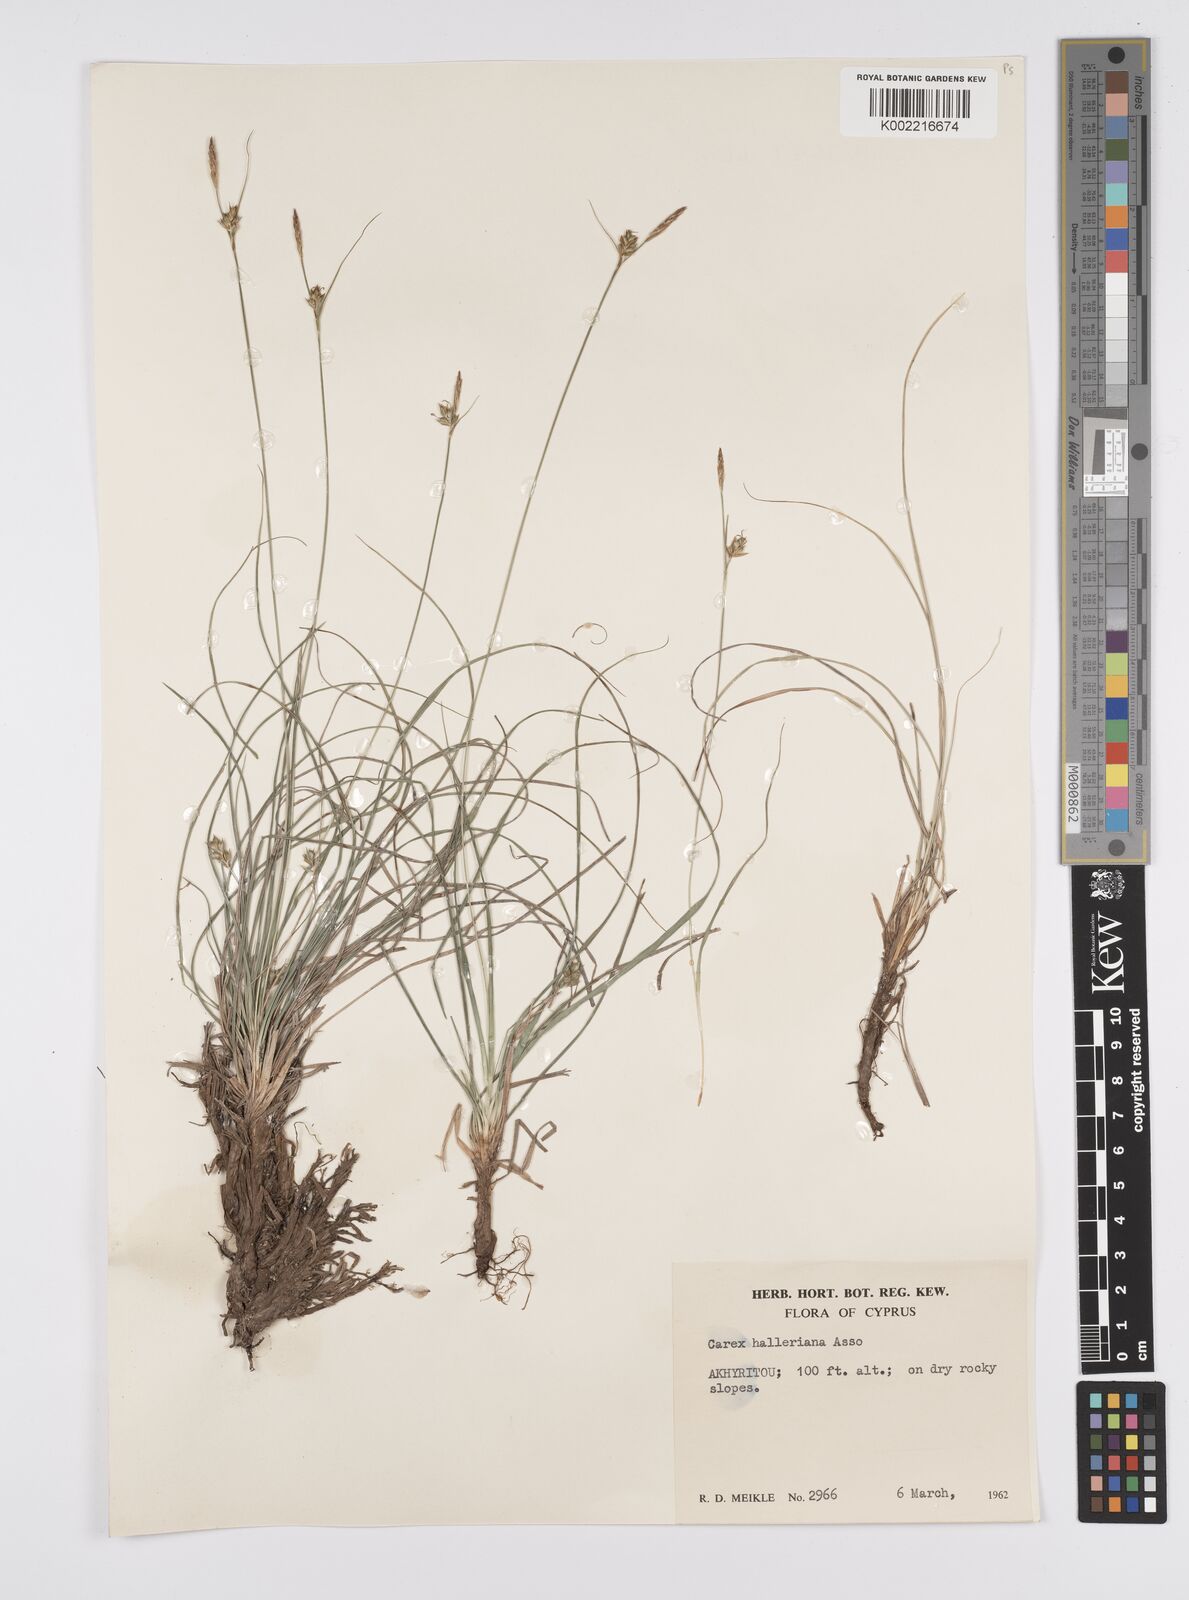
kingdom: Plantae
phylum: Tracheophyta
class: Liliopsida
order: Poales
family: Cyperaceae
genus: Carex
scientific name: Carex halleriana
